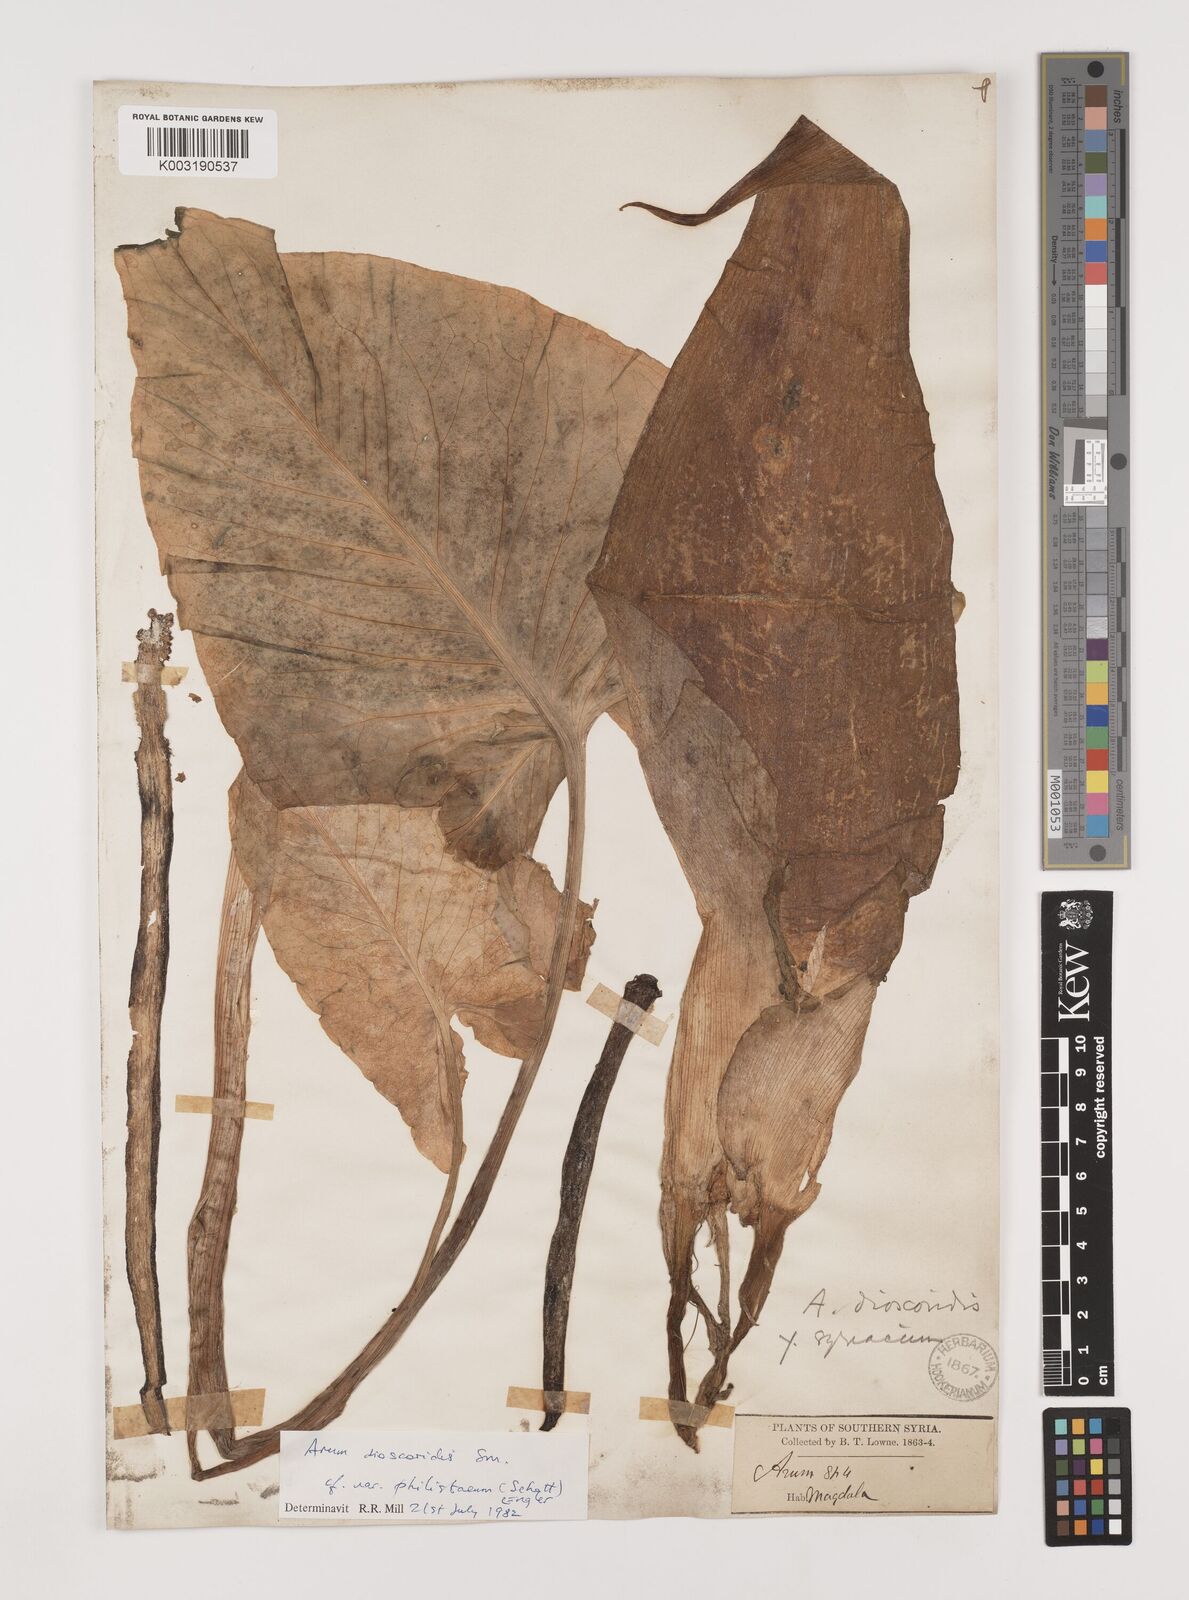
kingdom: Plantae
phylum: Tracheophyta
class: Liliopsida
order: Alismatales
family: Araceae
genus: Arum
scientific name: Arum dioscoridis
